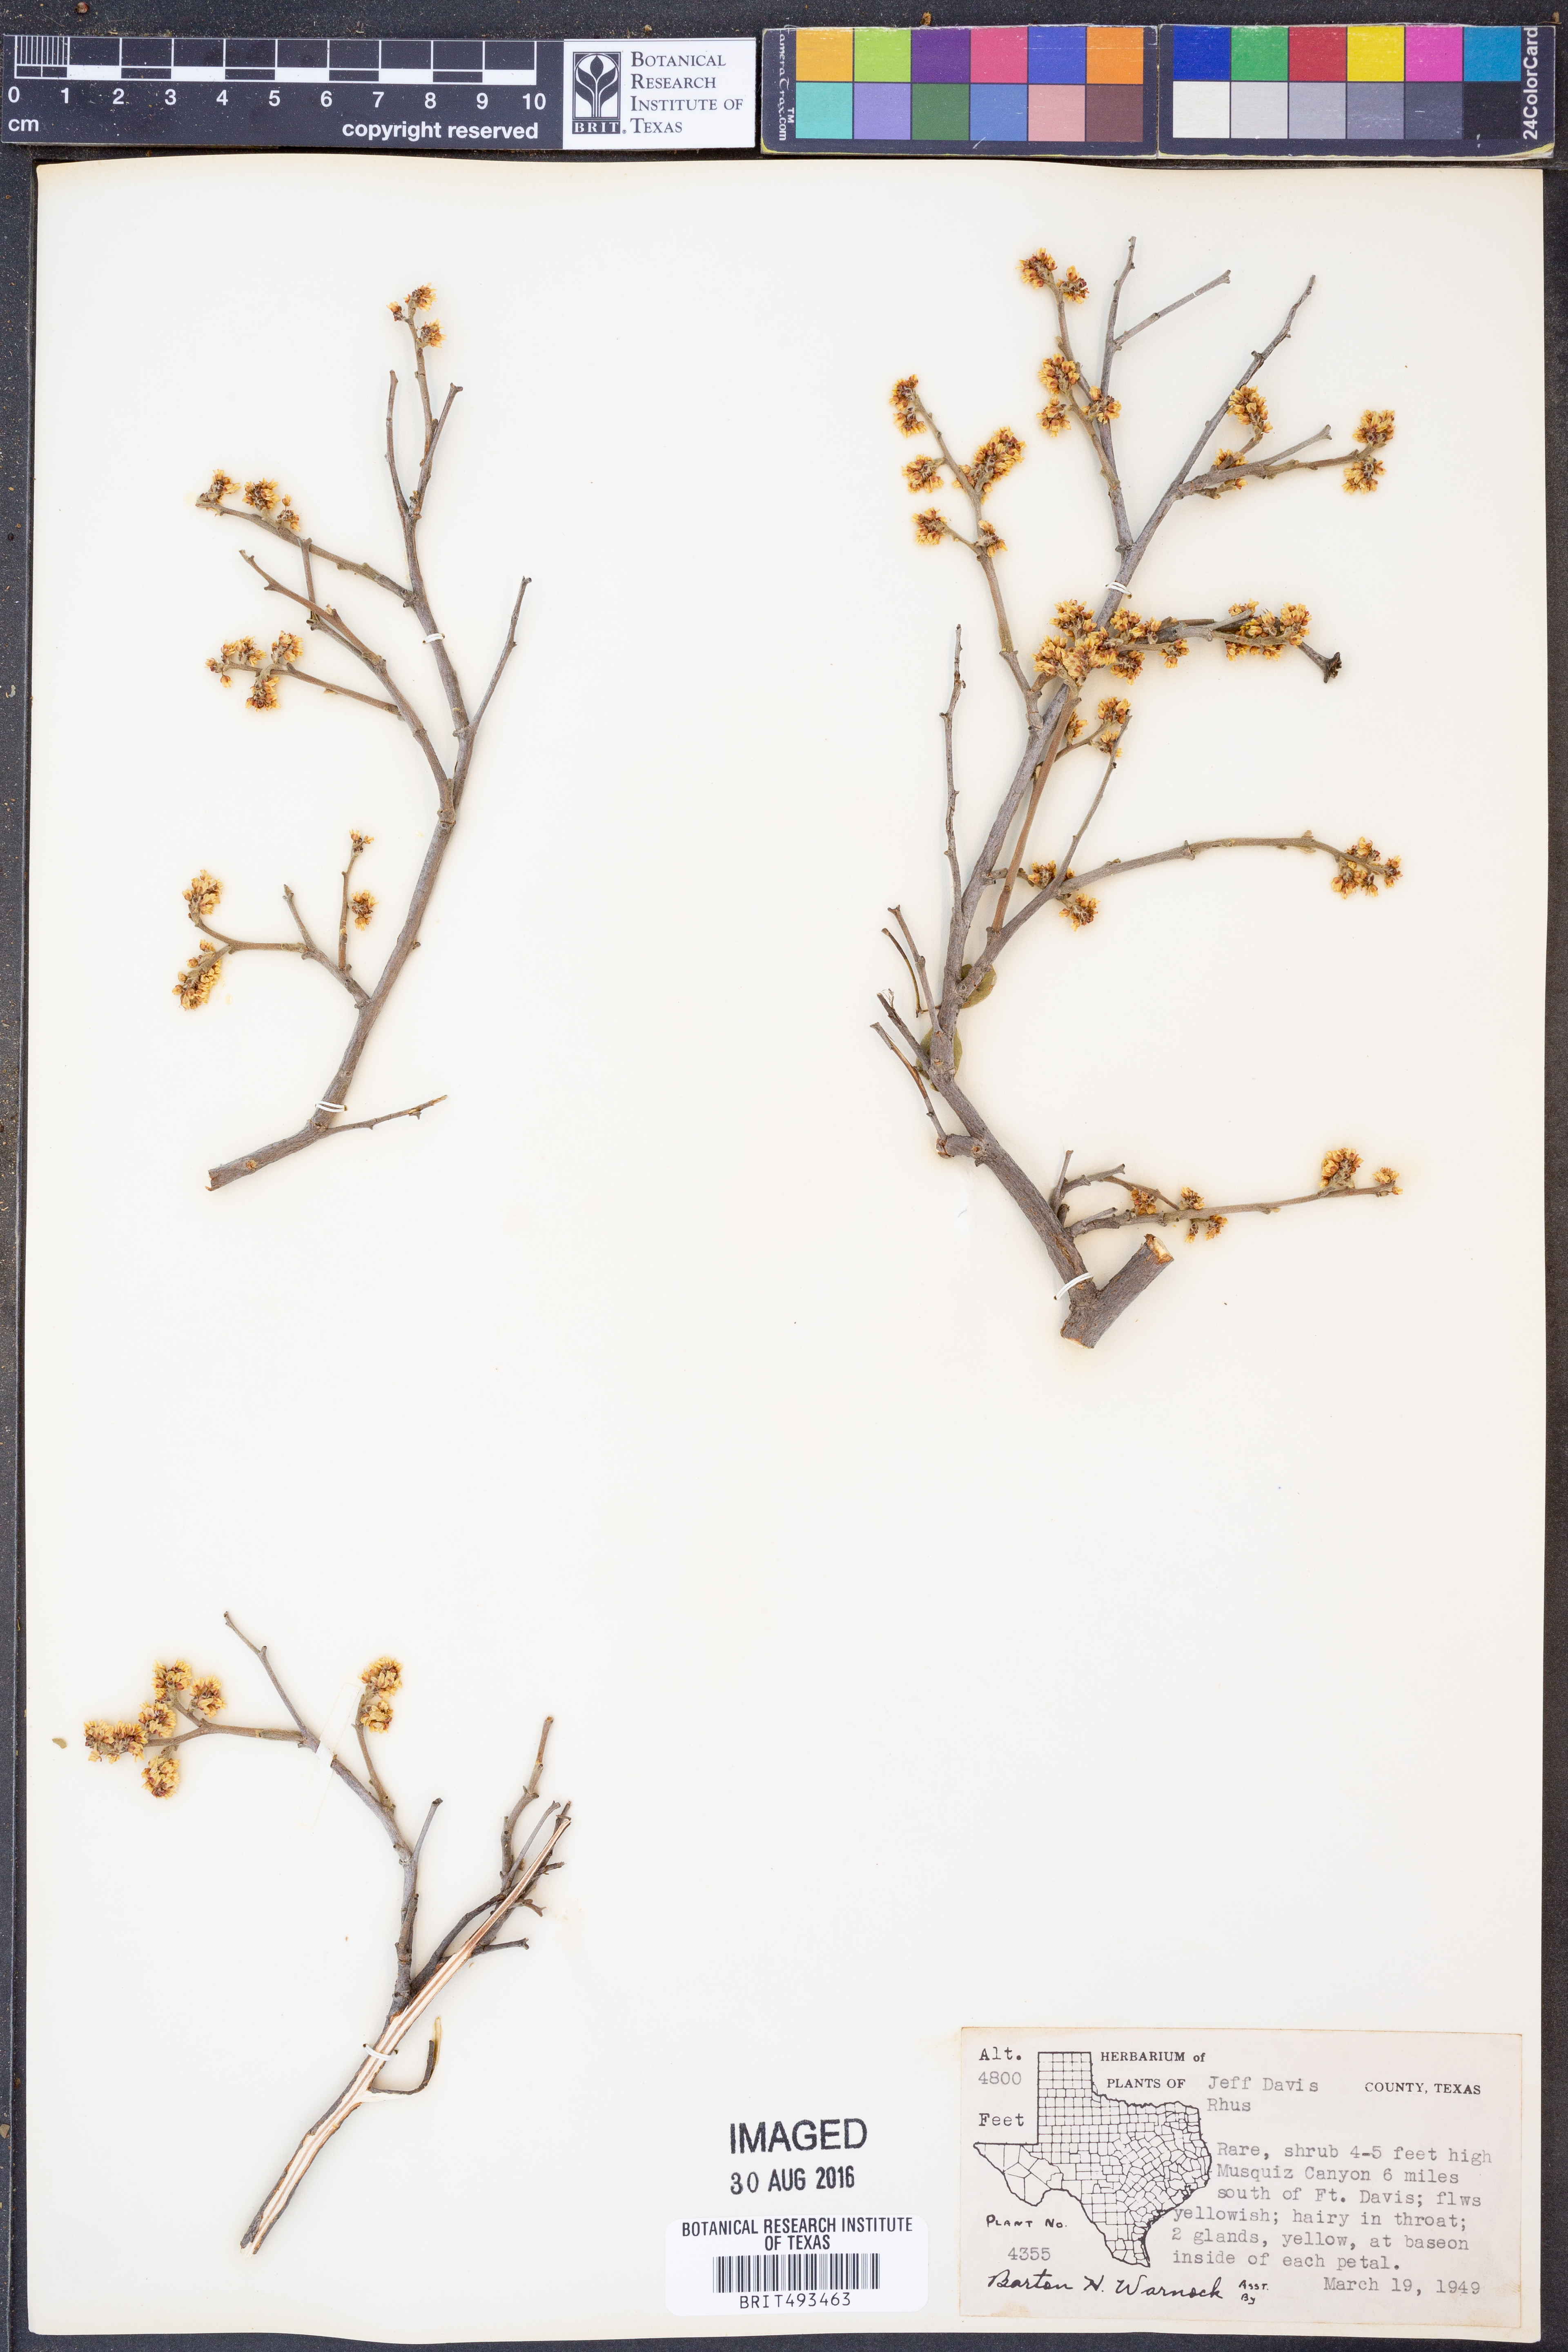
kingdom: Plantae
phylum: Tracheophyta
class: Magnoliopsida
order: Sapindales
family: Anacardiaceae
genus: Rhus
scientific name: Rhus
